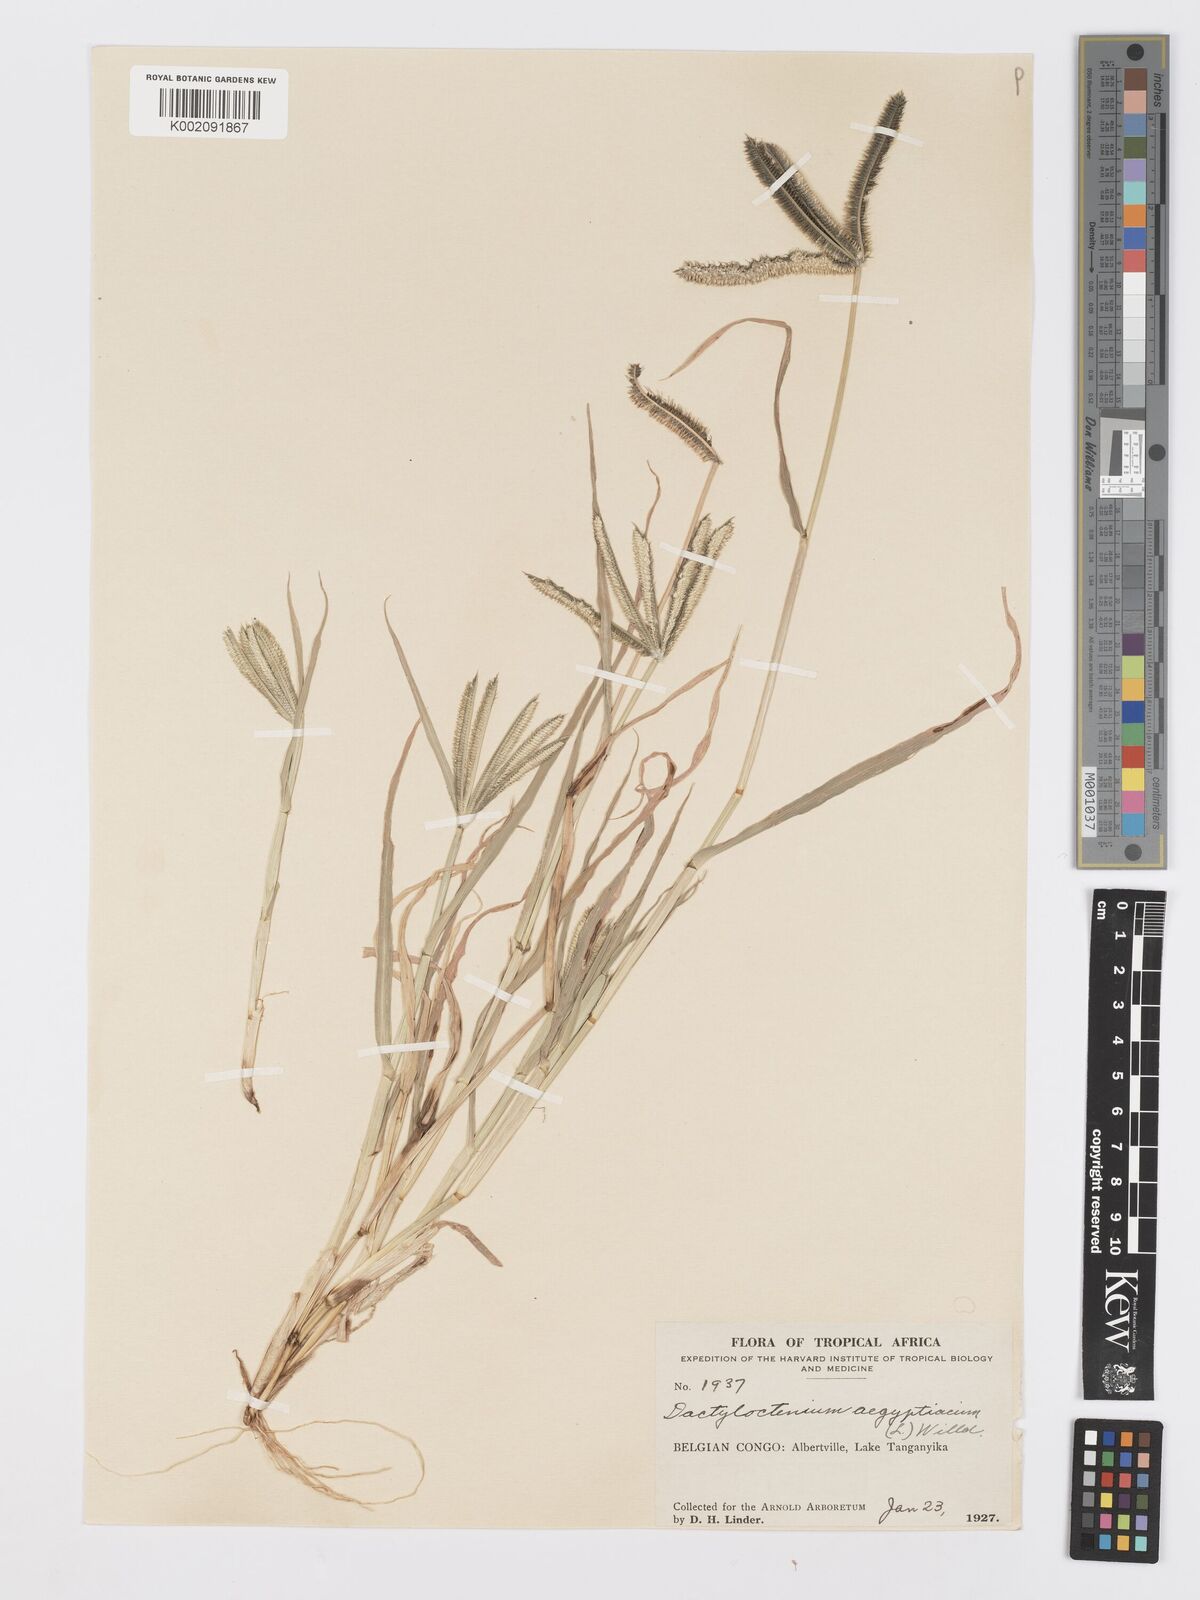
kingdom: Plantae
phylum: Tracheophyta
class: Liliopsida
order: Poales
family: Poaceae
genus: Dactyloctenium
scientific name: Dactyloctenium aegyptium
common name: Egyptian grass
